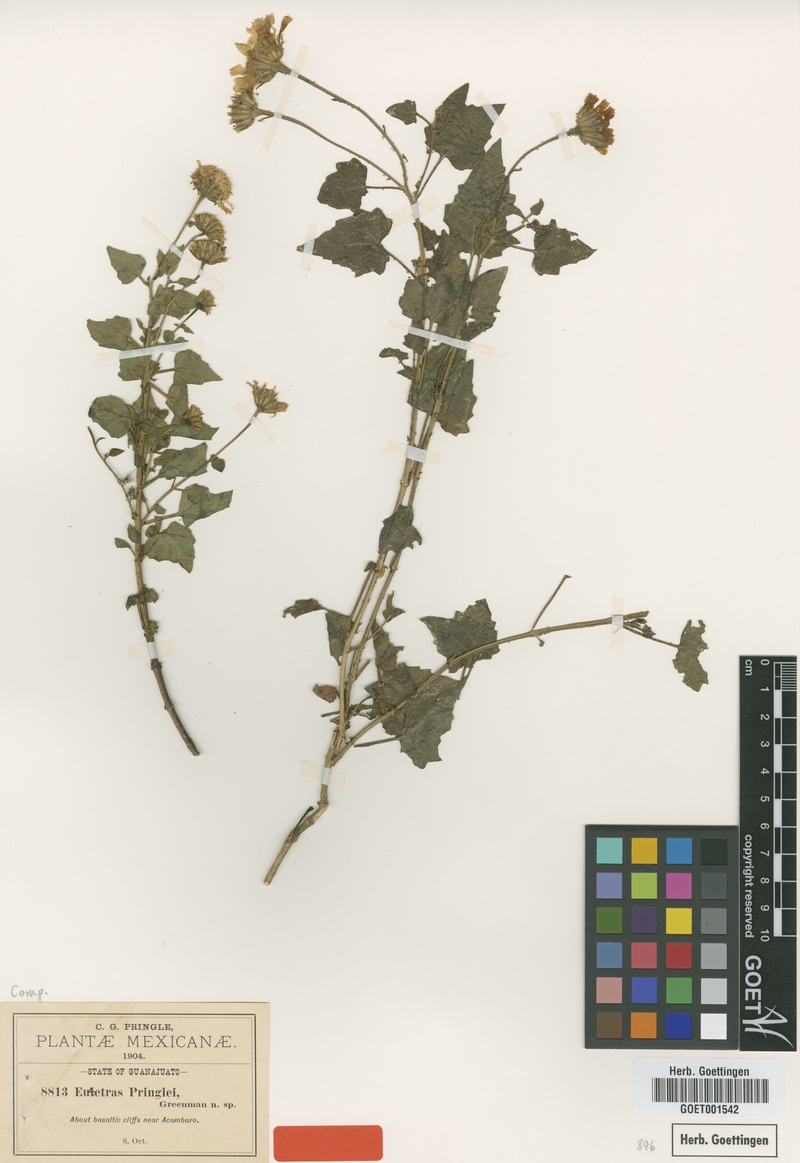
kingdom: Plantae
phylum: Tracheophyta
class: Magnoliopsida
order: Asterales
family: Asteraceae
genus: Eutetras
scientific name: Eutetras pringlei
